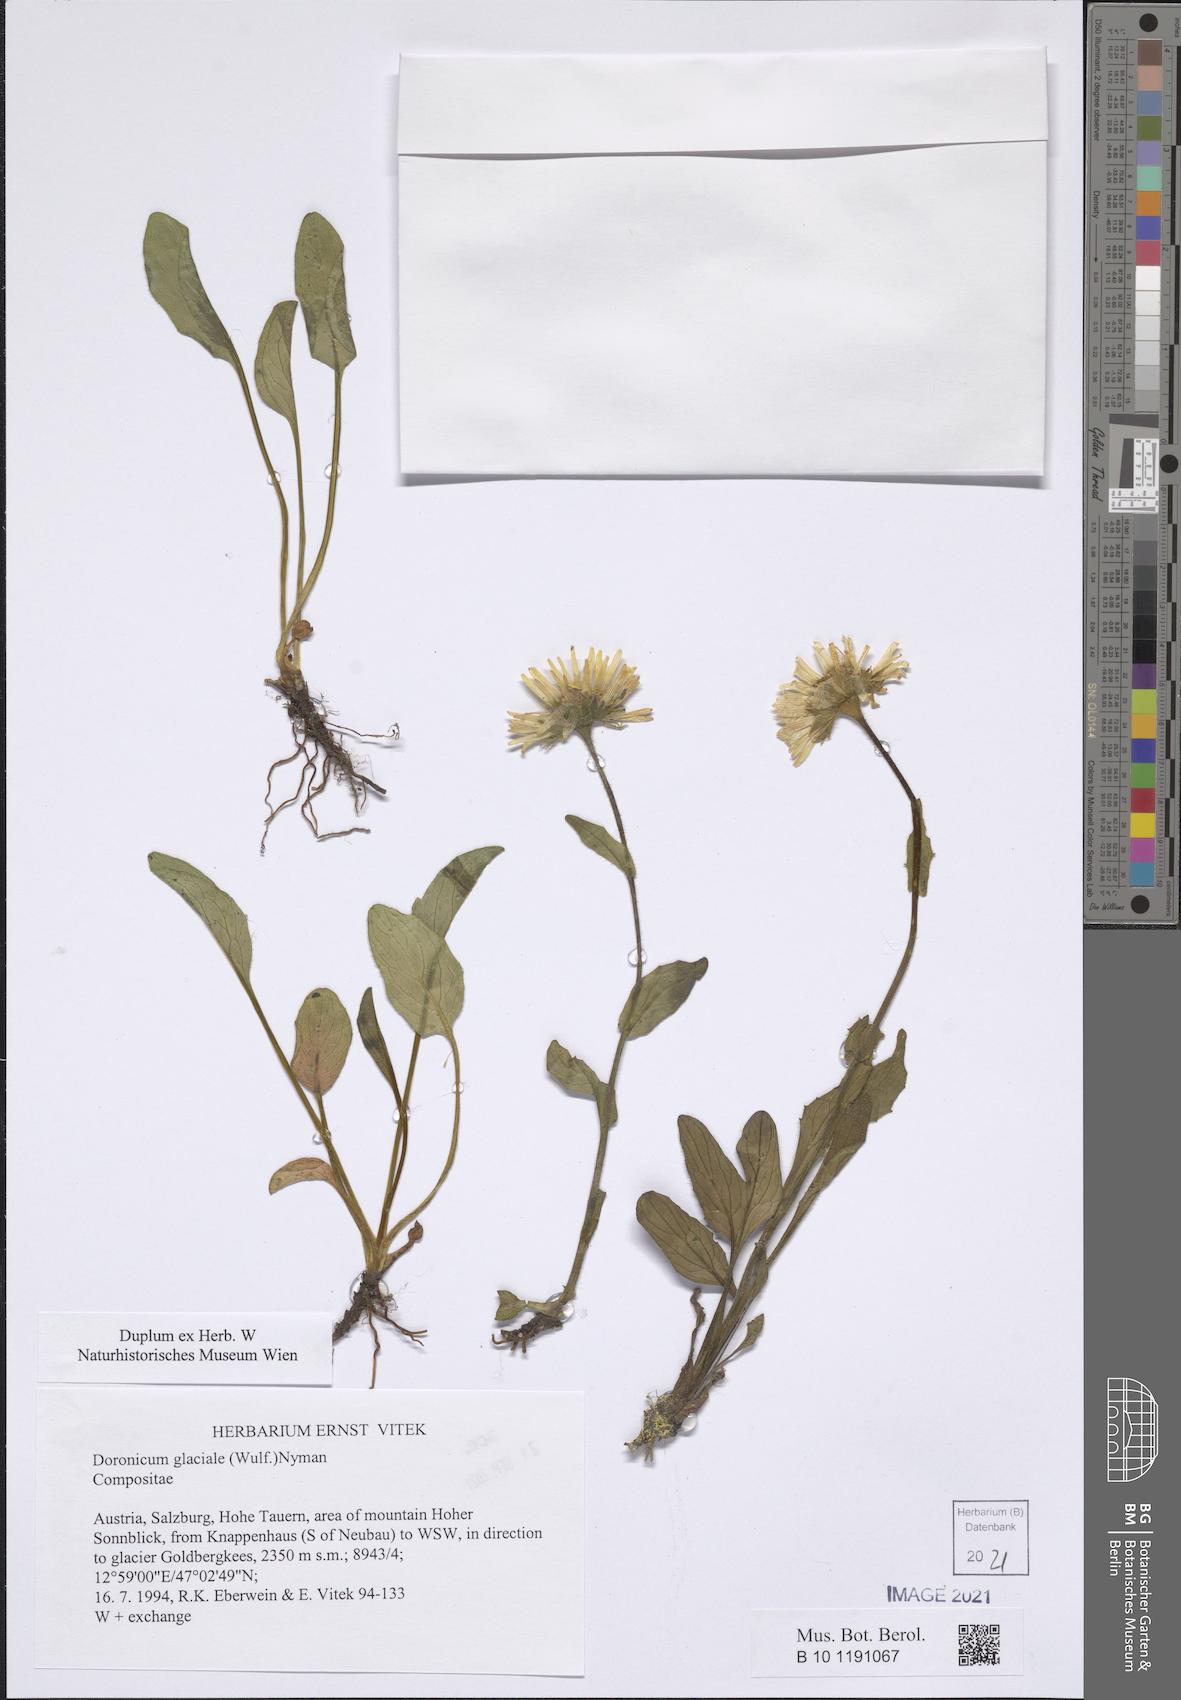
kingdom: Plantae
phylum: Tracheophyta
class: Magnoliopsida
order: Asterales
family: Asteraceae
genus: Doronicum
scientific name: Doronicum glaciale
